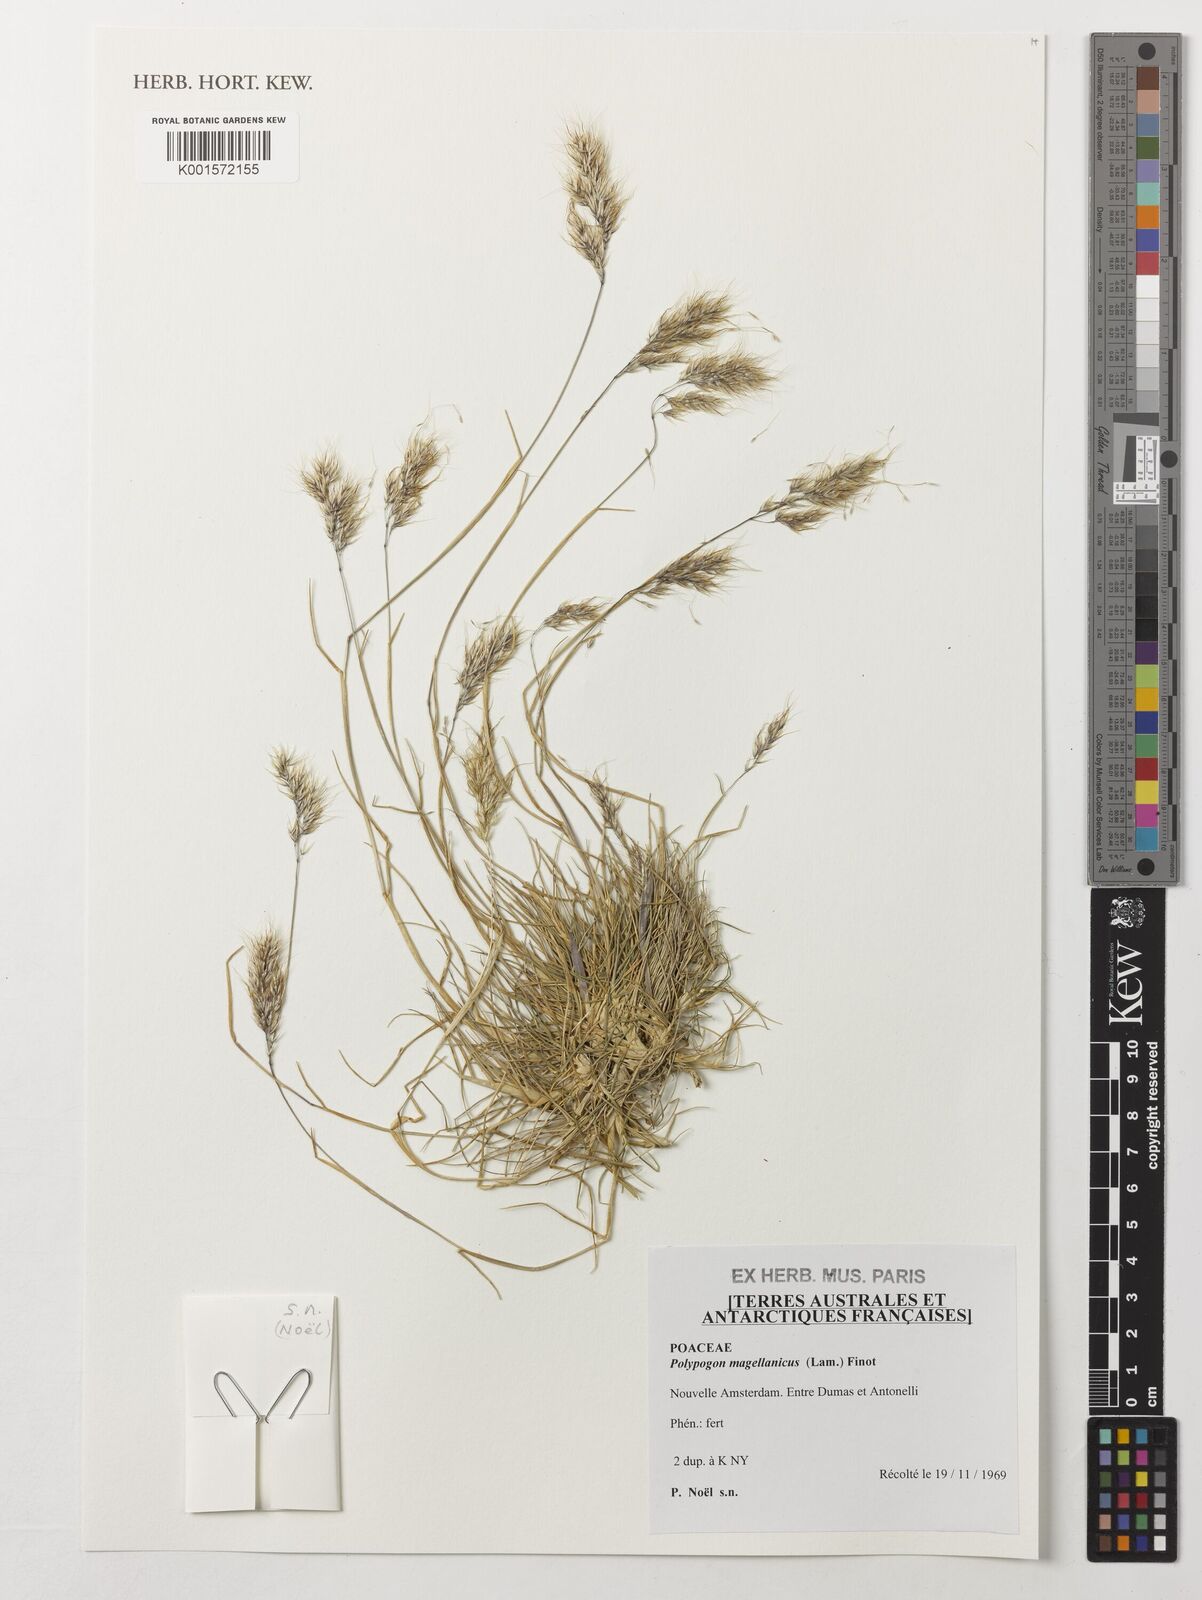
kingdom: Plantae
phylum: Tracheophyta
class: Liliopsida
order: Poales
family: Poaceae
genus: Polypogon
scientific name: Polypogon magellanicus
